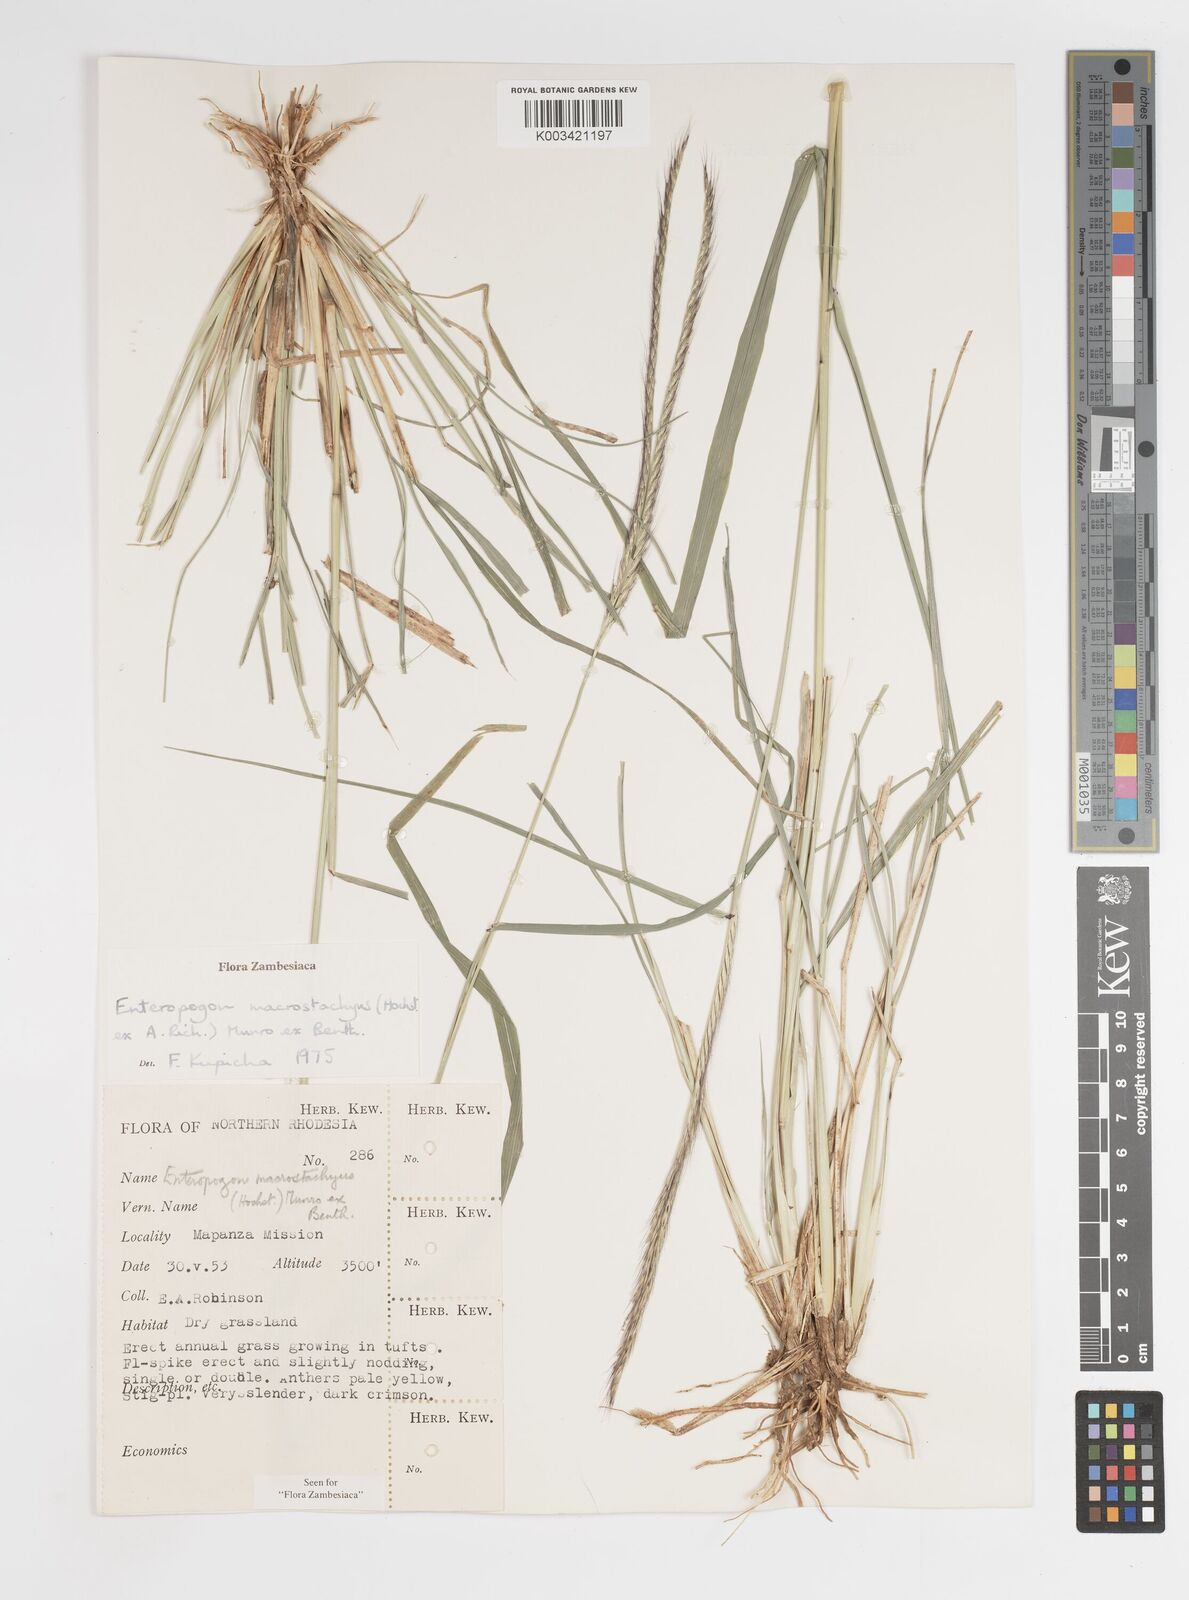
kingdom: Plantae
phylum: Tracheophyta
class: Liliopsida
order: Poales
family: Poaceae
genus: Enteropogon
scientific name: Enteropogon macrostachyus
